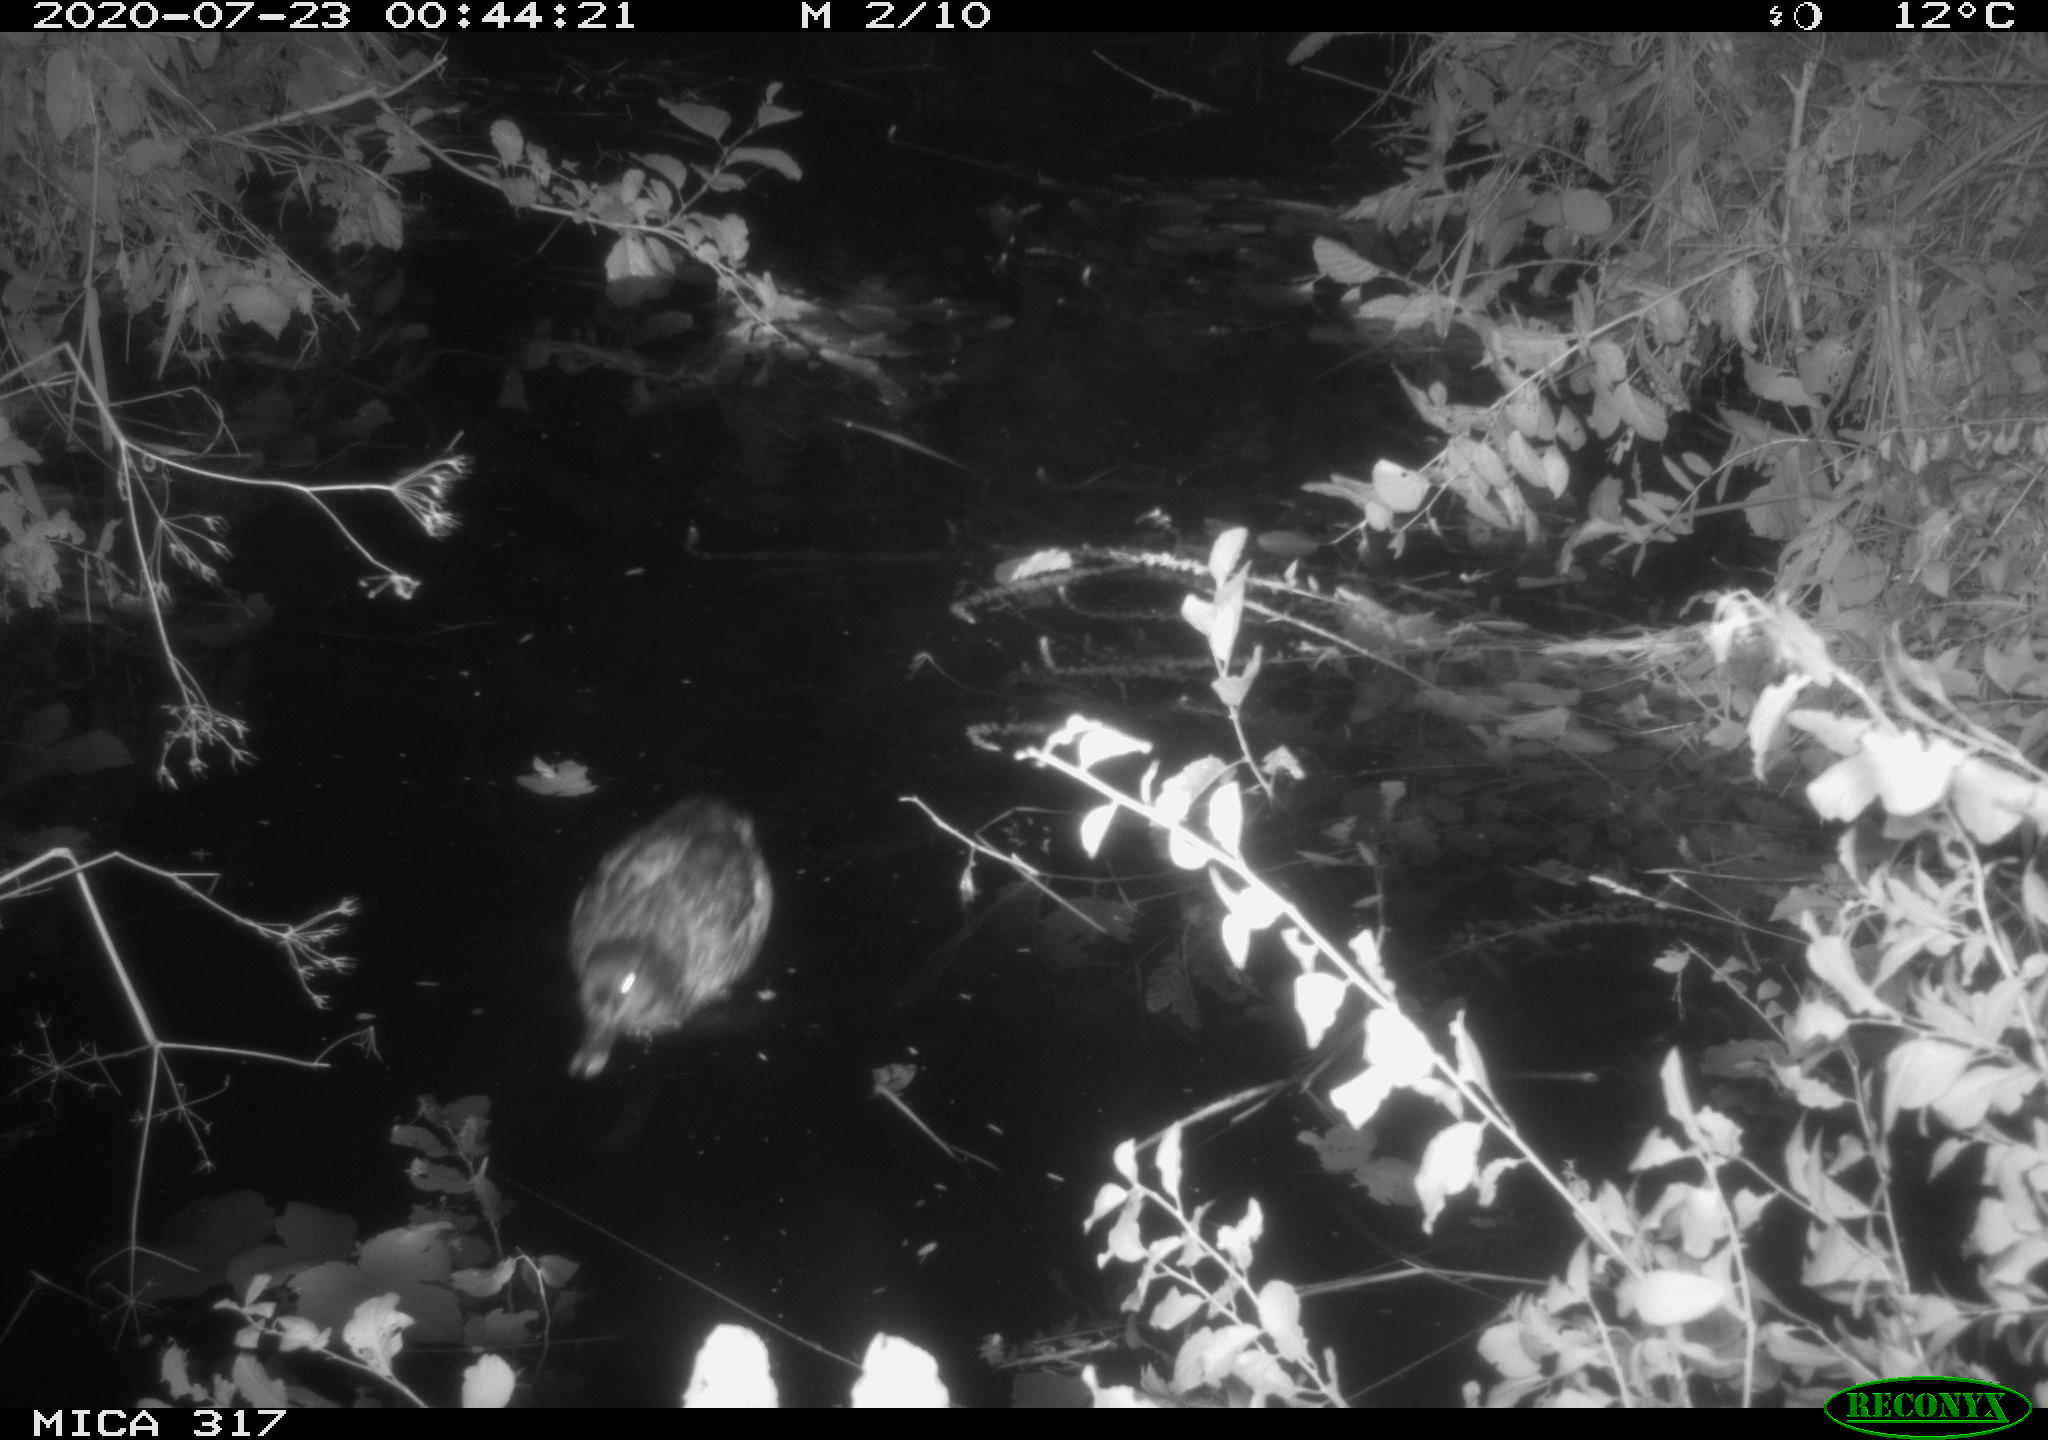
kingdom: Animalia
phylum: Chordata
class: Aves
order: Anseriformes
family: Anatidae
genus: Anas
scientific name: Anas platyrhynchos
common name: Mallard
